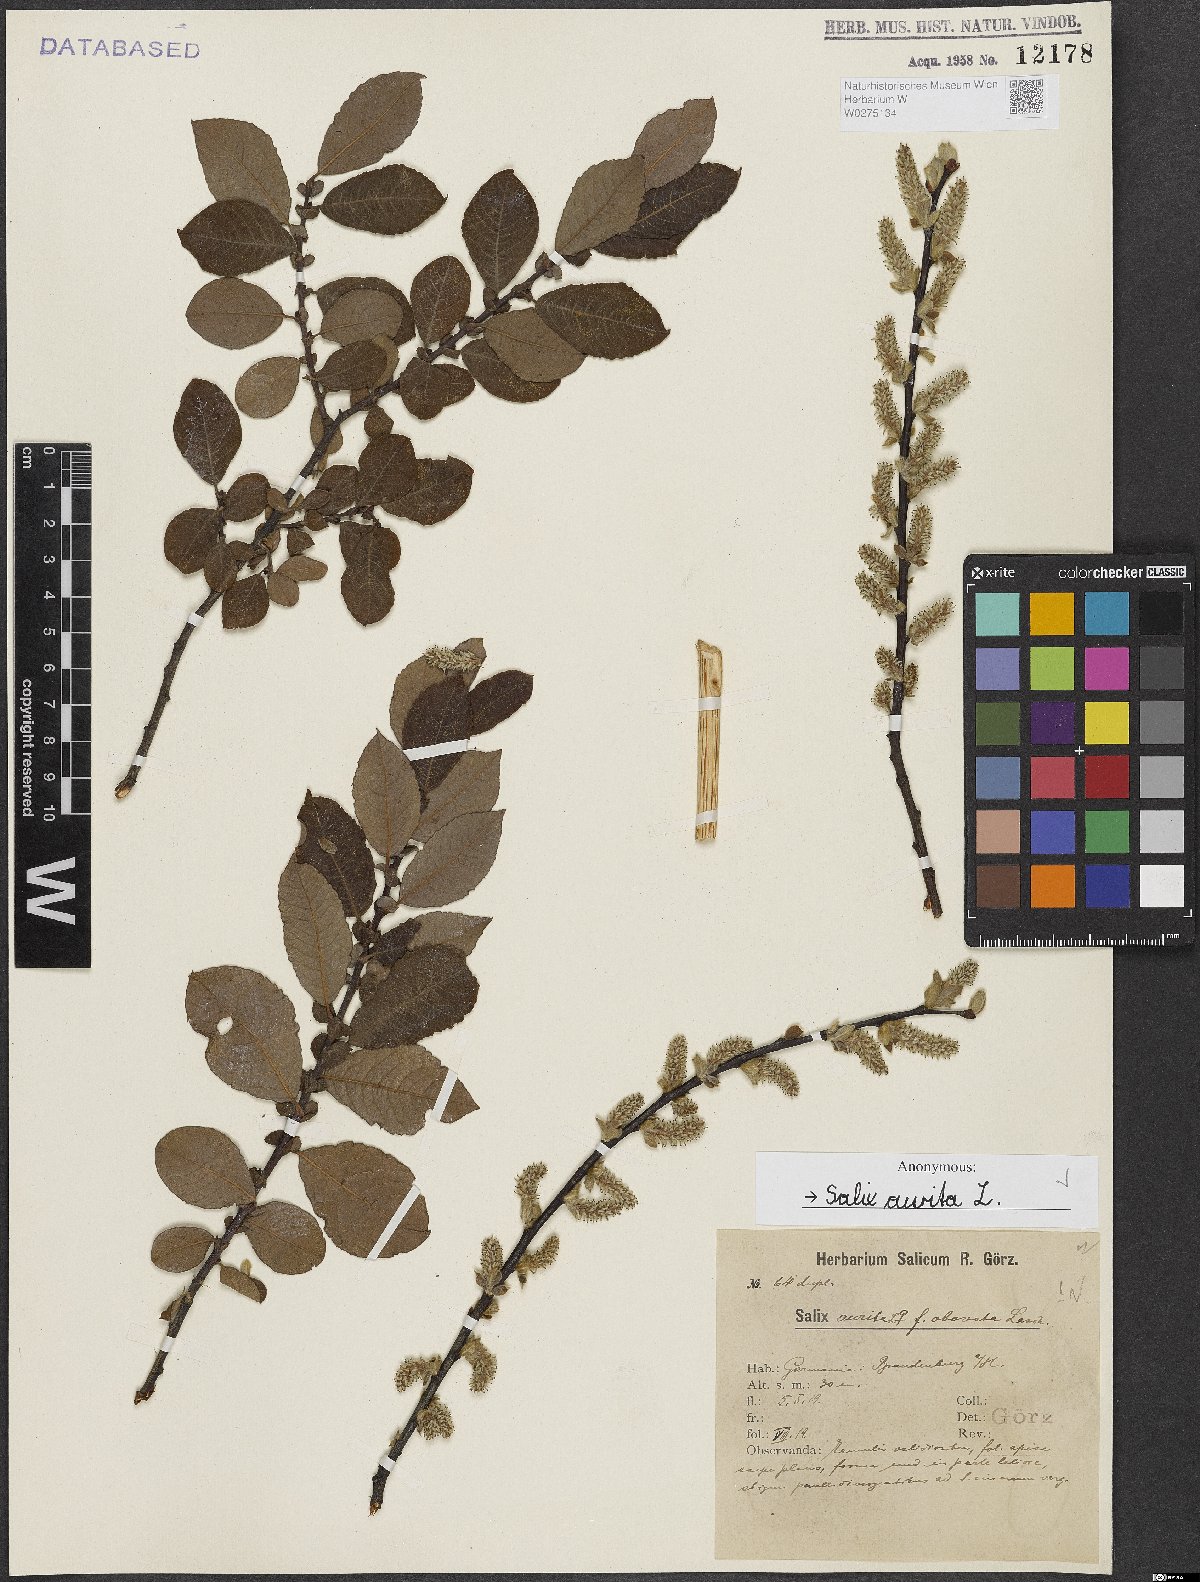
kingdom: Plantae
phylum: Tracheophyta
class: Magnoliopsida
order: Malpighiales
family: Salicaceae
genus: Salix
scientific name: Salix aurita
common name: Eared willow
